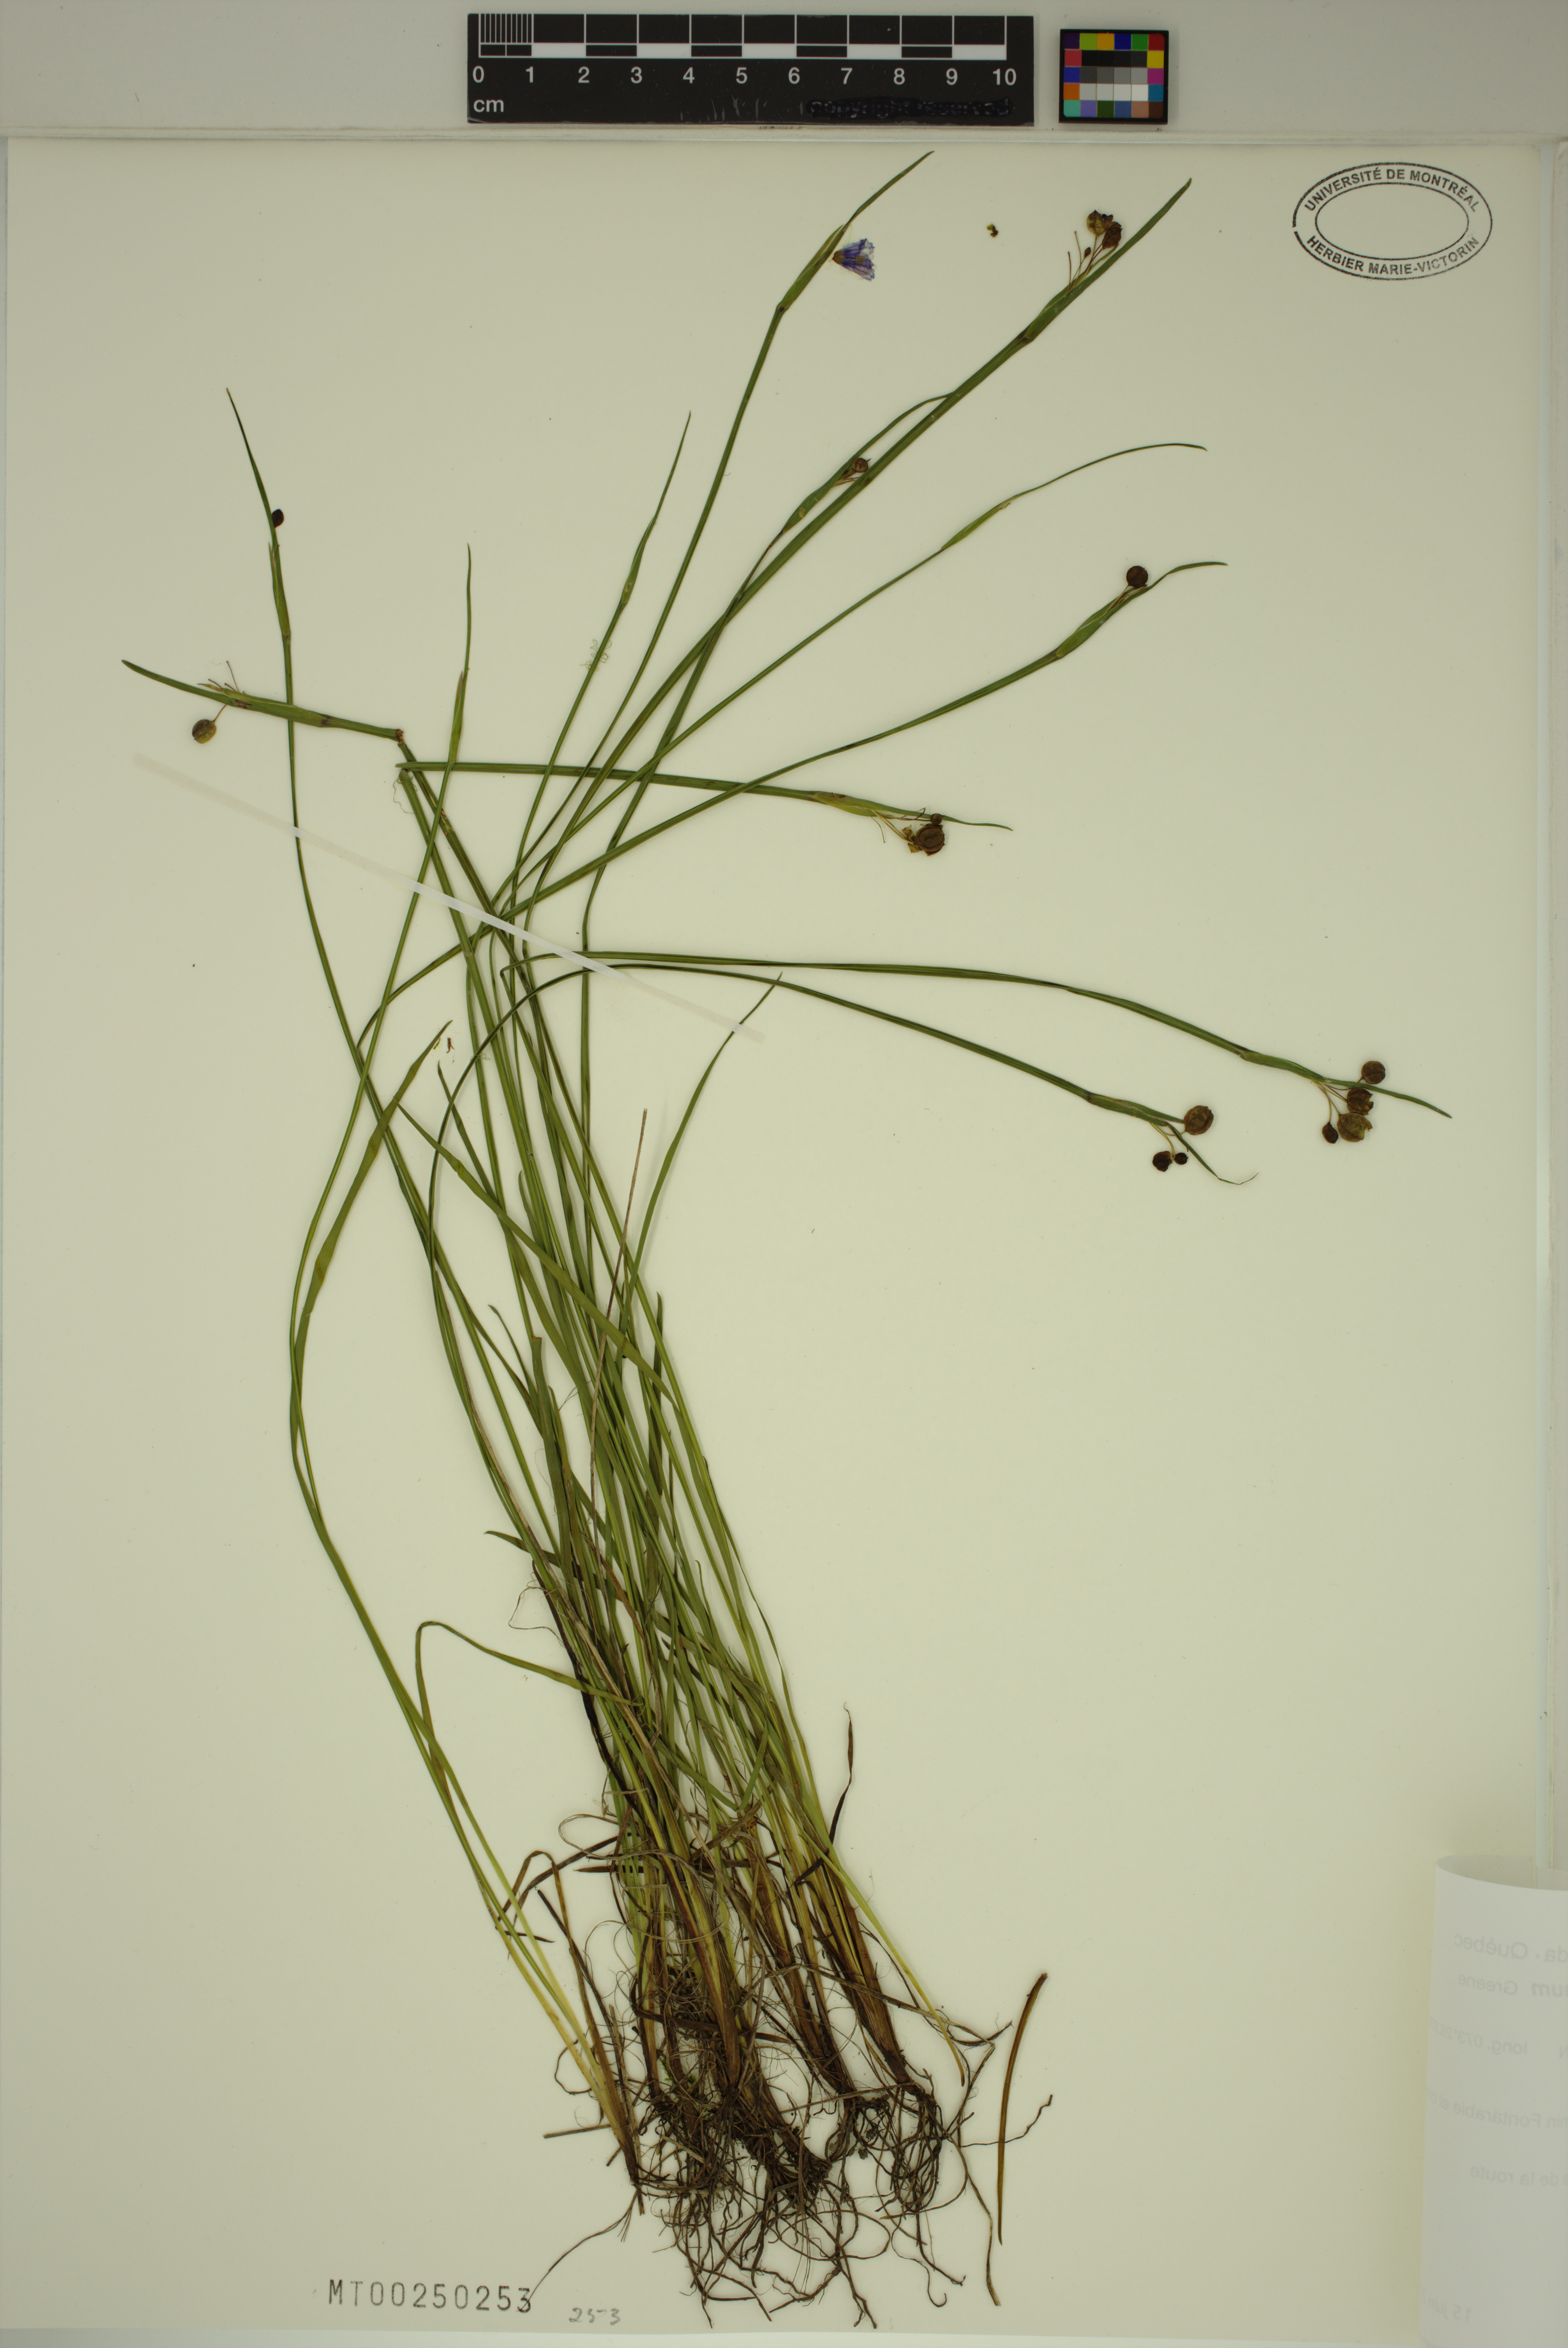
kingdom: Plantae
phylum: Tracheophyta
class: Liliopsida
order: Asparagales
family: Iridaceae
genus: Sisyrinchium
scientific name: Sisyrinchium montanum
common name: American blue-eyed-grass
